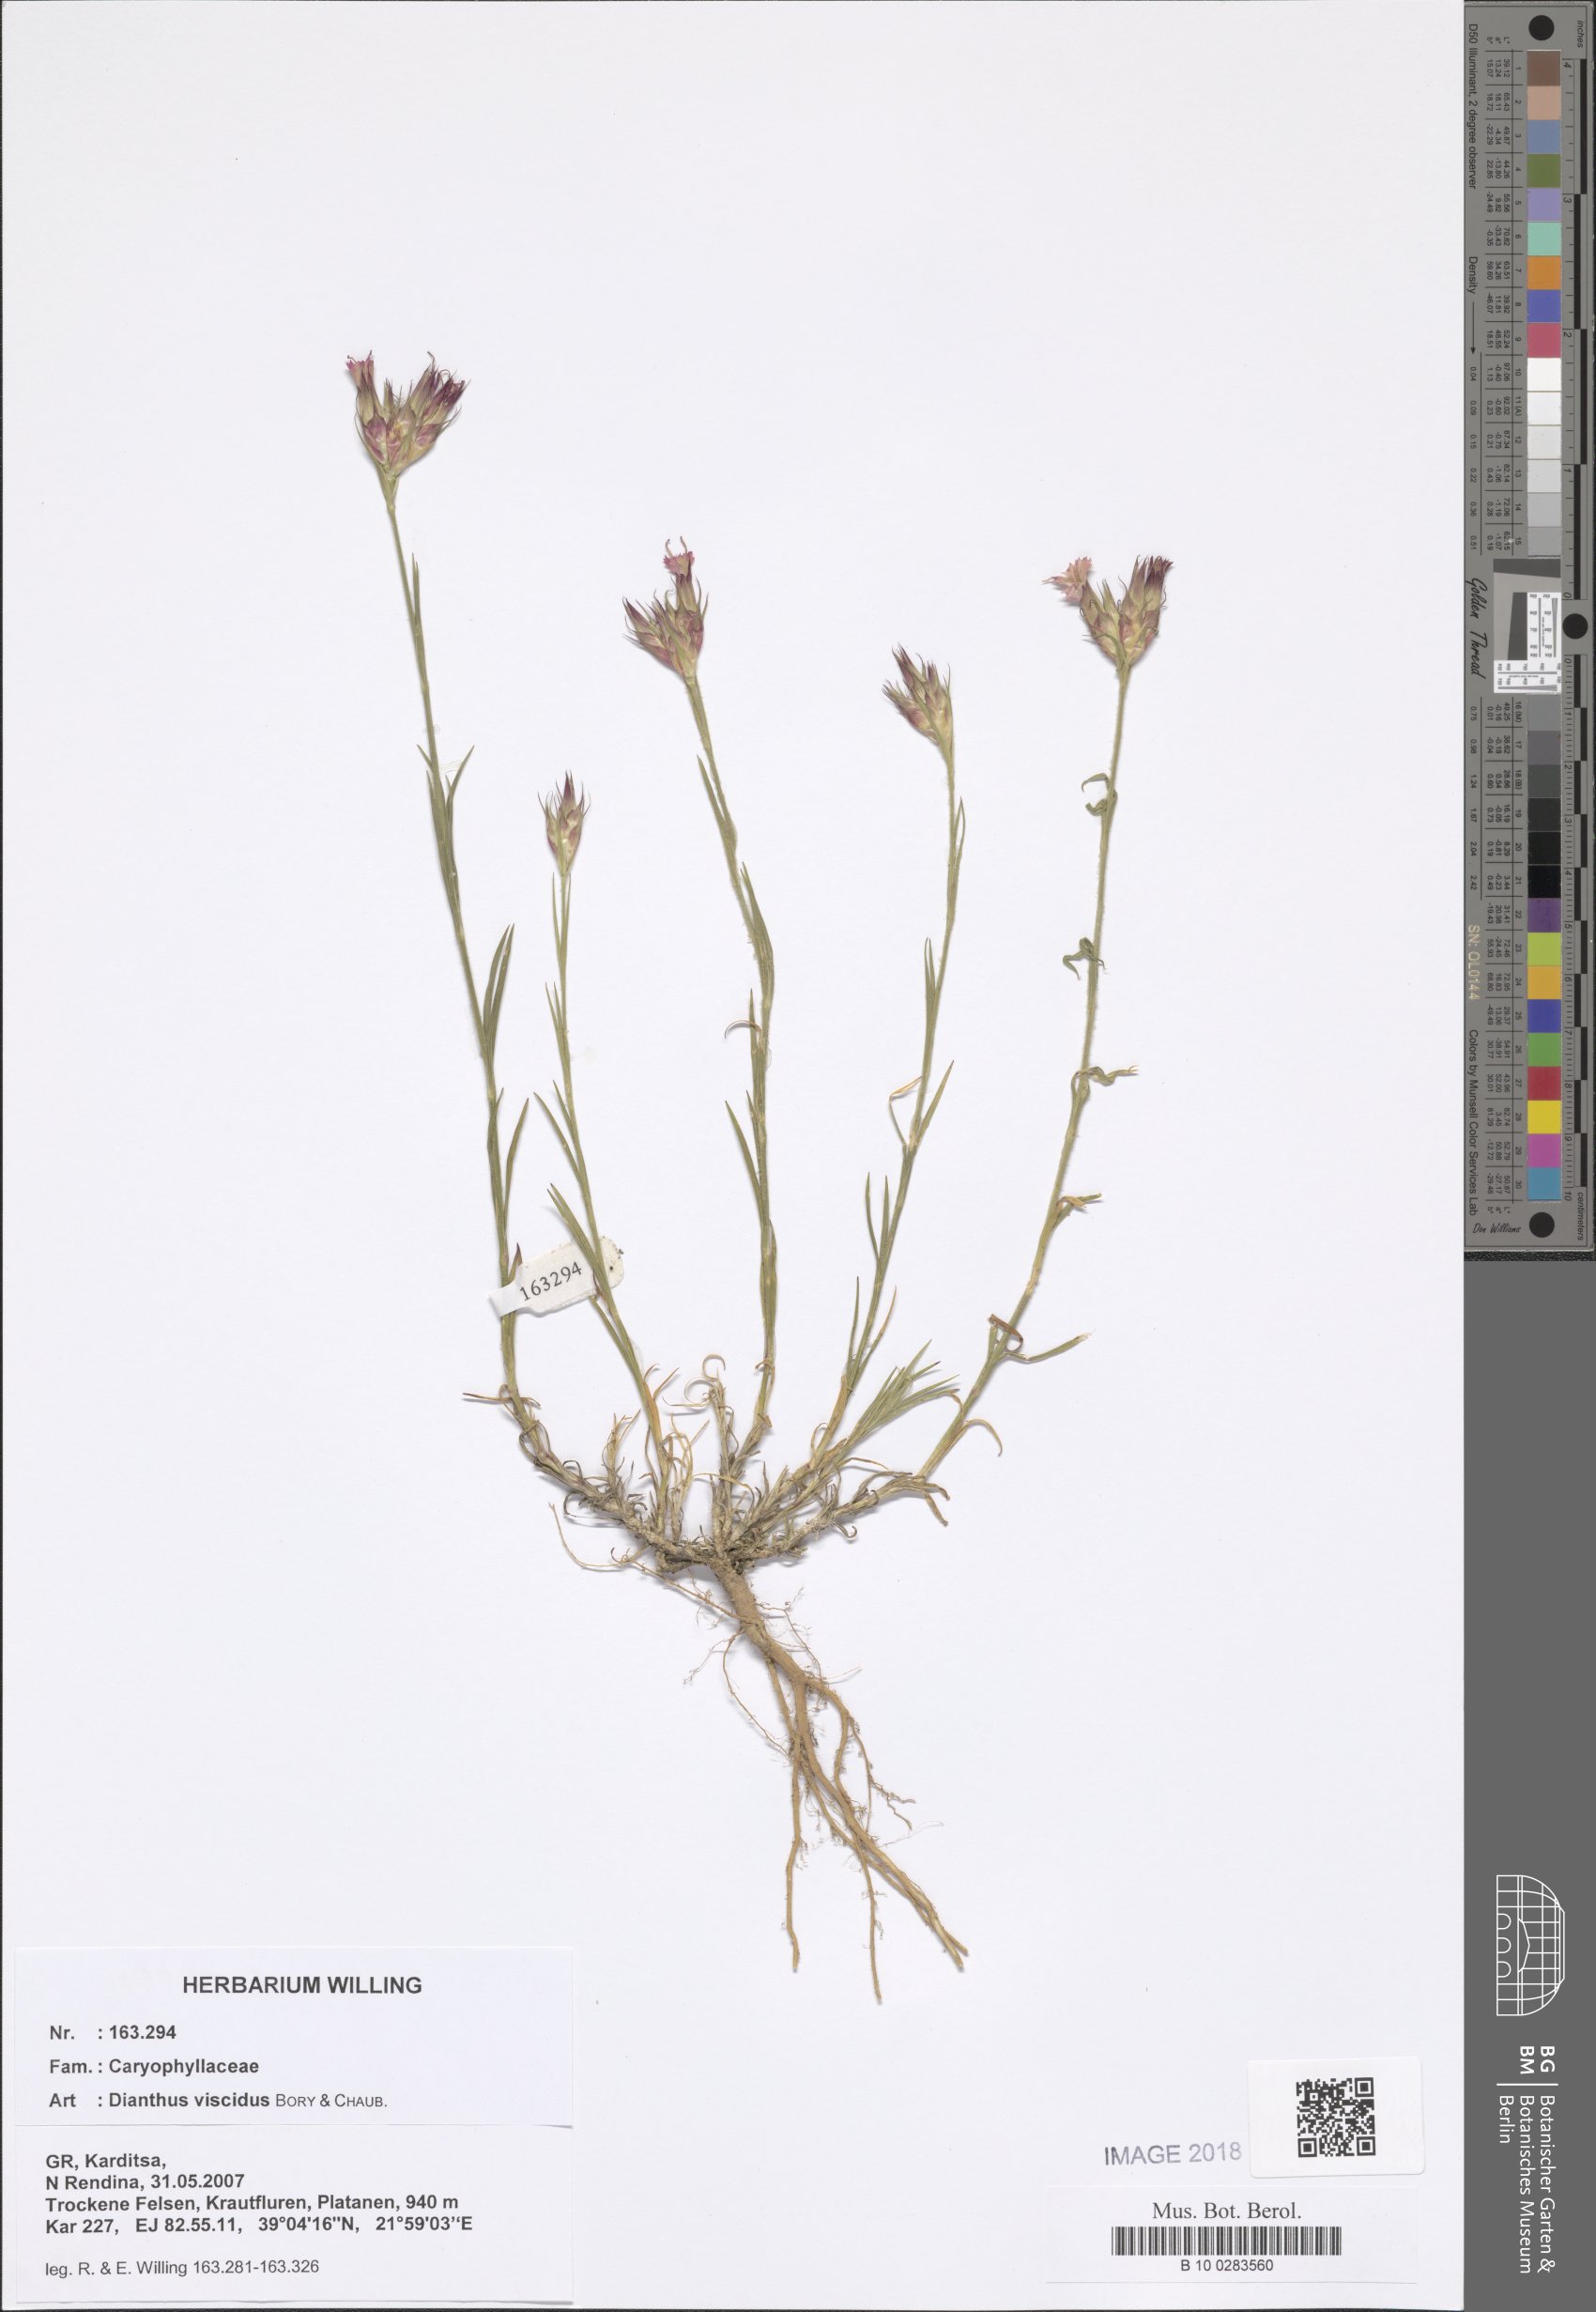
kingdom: Plantae
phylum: Tracheophyta
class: Magnoliopsida
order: Caryophyllales
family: Caryophyllaceae
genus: Dianthus
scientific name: Dianthus viscidus
